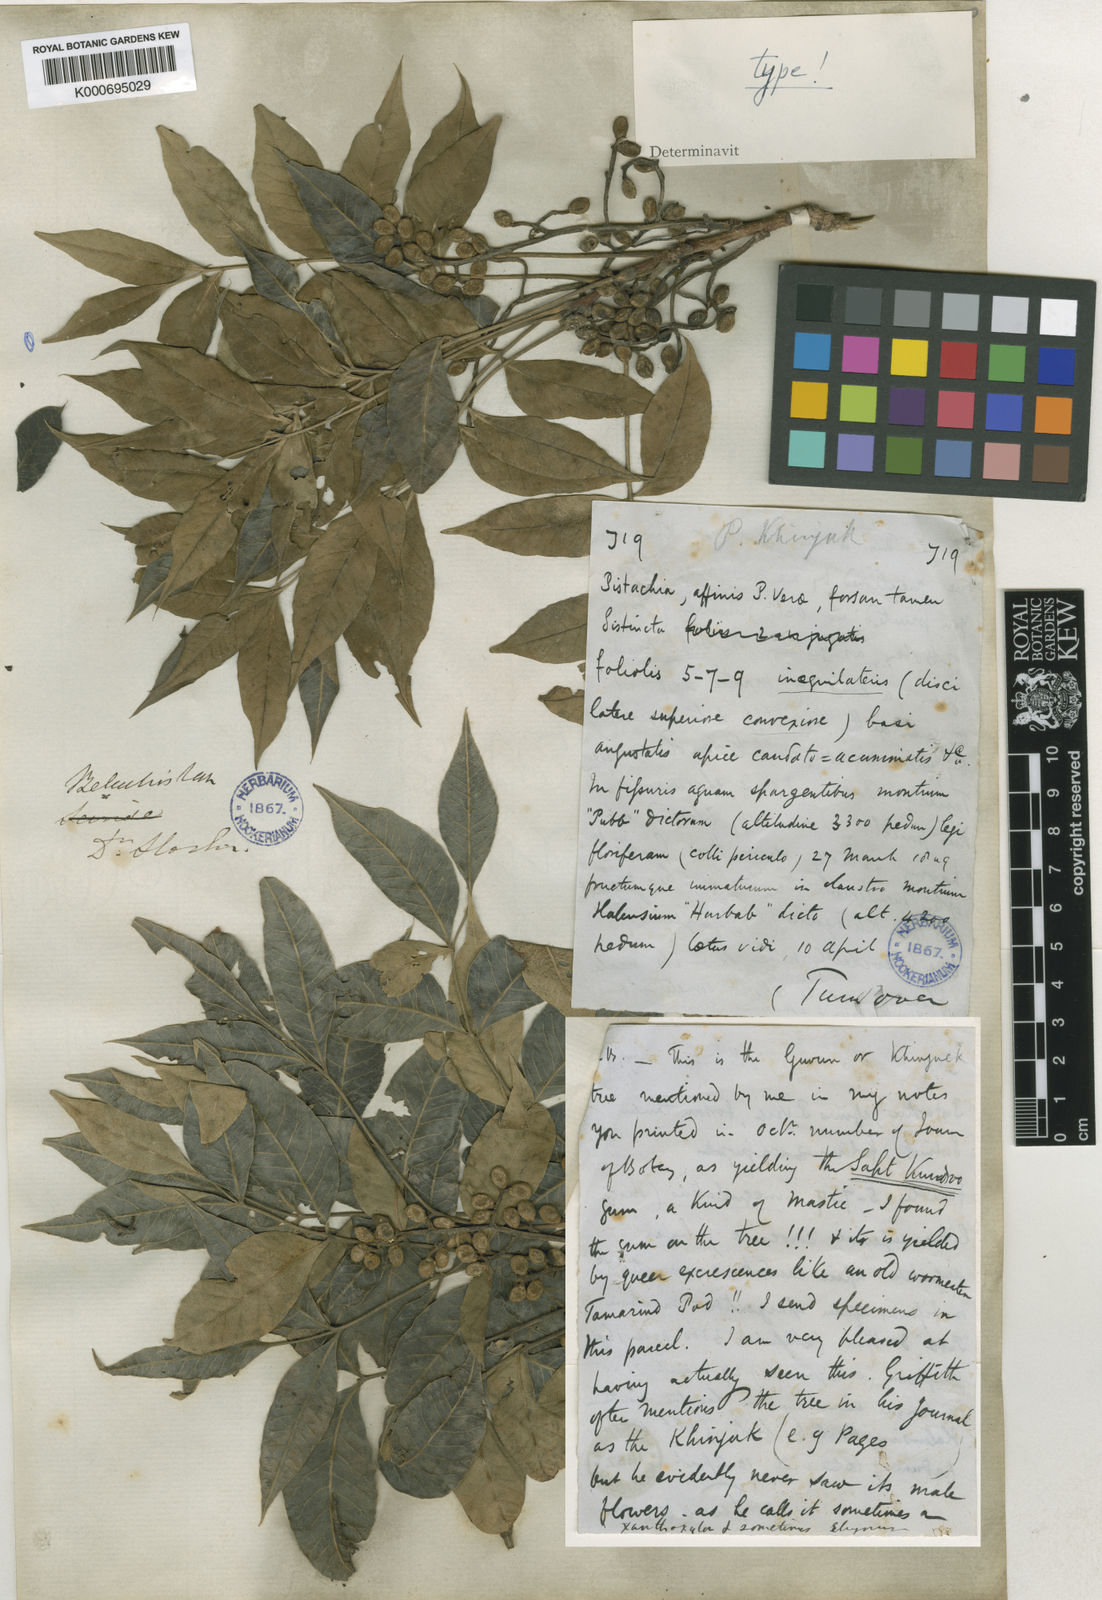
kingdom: Plantae
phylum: Tracheophyta
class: Magnoliopsida
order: Sapindales
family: Anacardiaceae
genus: Pistacia
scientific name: Pistacia khinjuk
